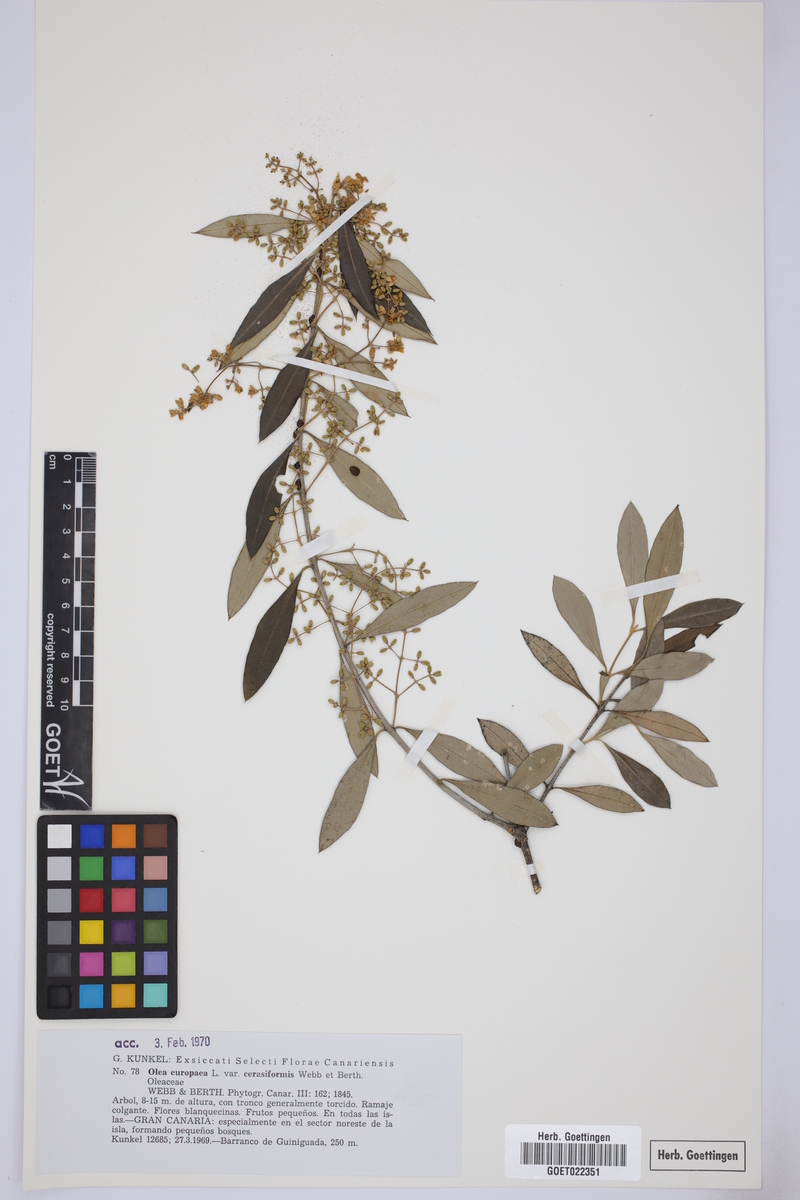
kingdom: Plantae
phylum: Tracheophyta
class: Magnoliopsida
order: Lamiales
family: Oleaceae
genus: Olea
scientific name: Olea europaea
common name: Olive
